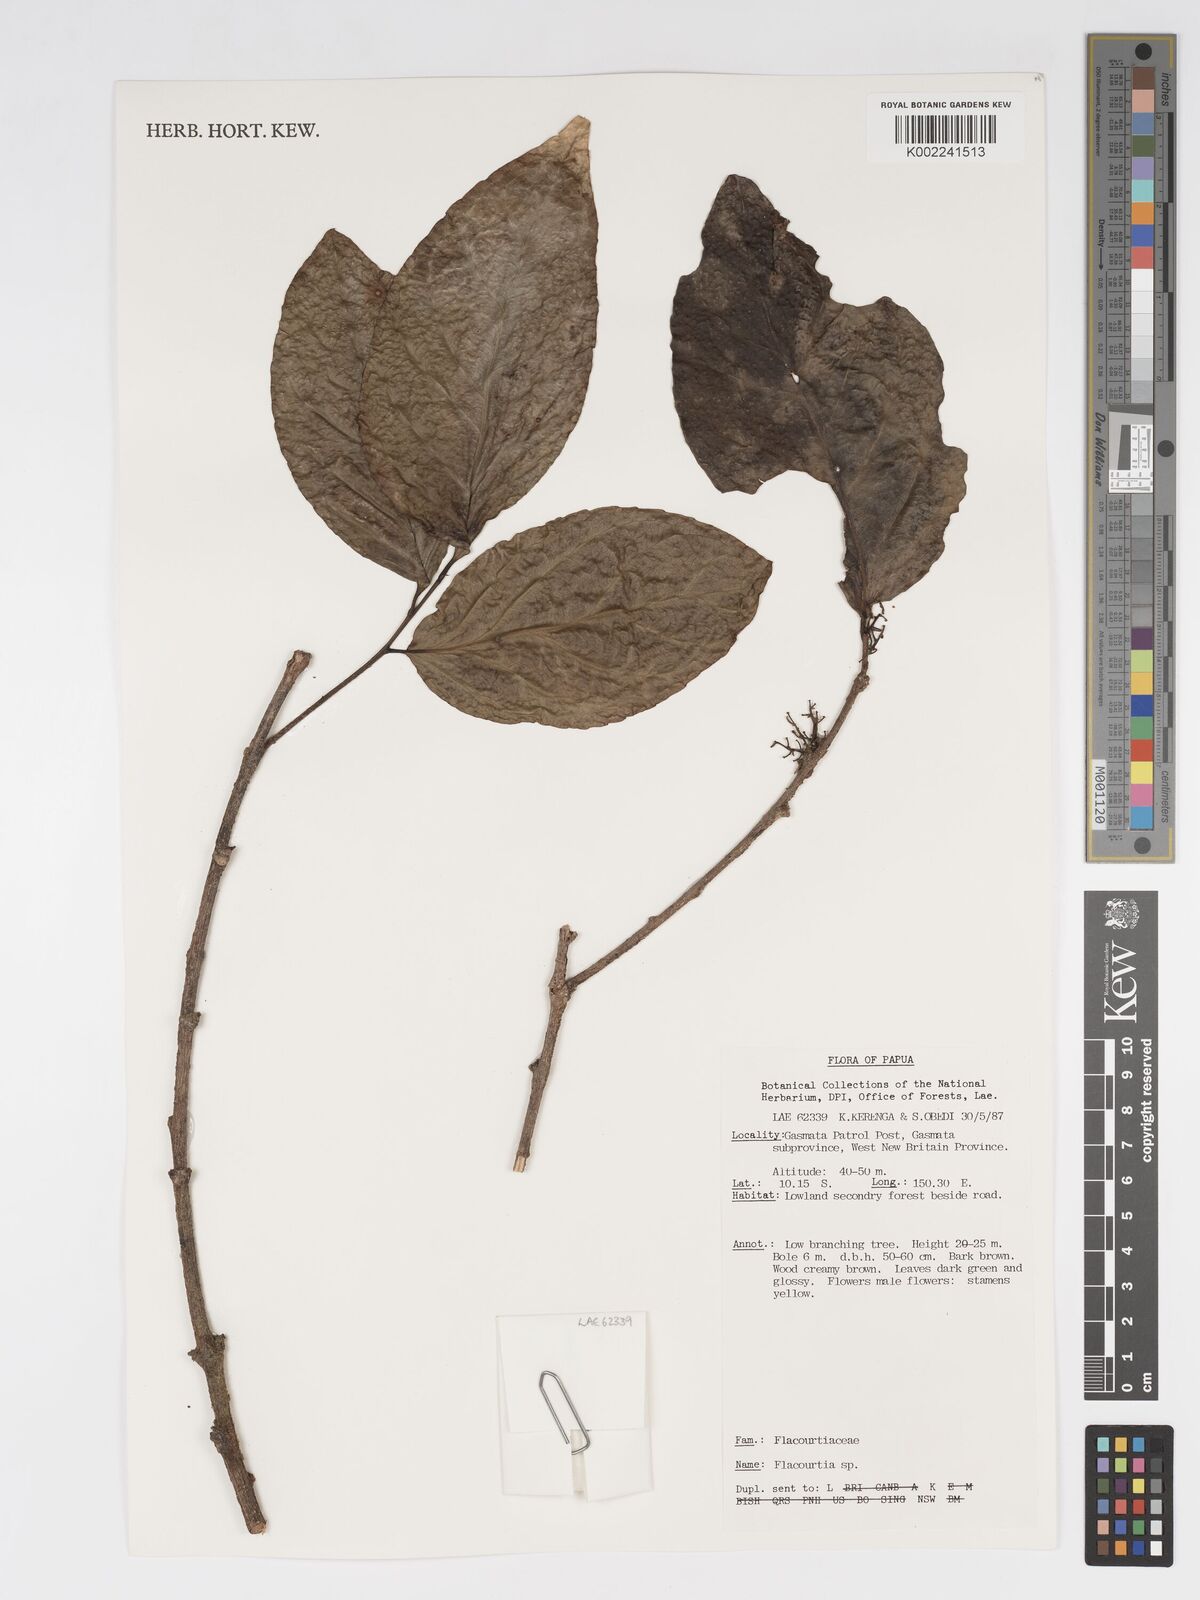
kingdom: Plantae
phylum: Tracheophyta
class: Magnoliopsida
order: Malpighiales
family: Salicaceae
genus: Flacourtia
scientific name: Flacourtia
